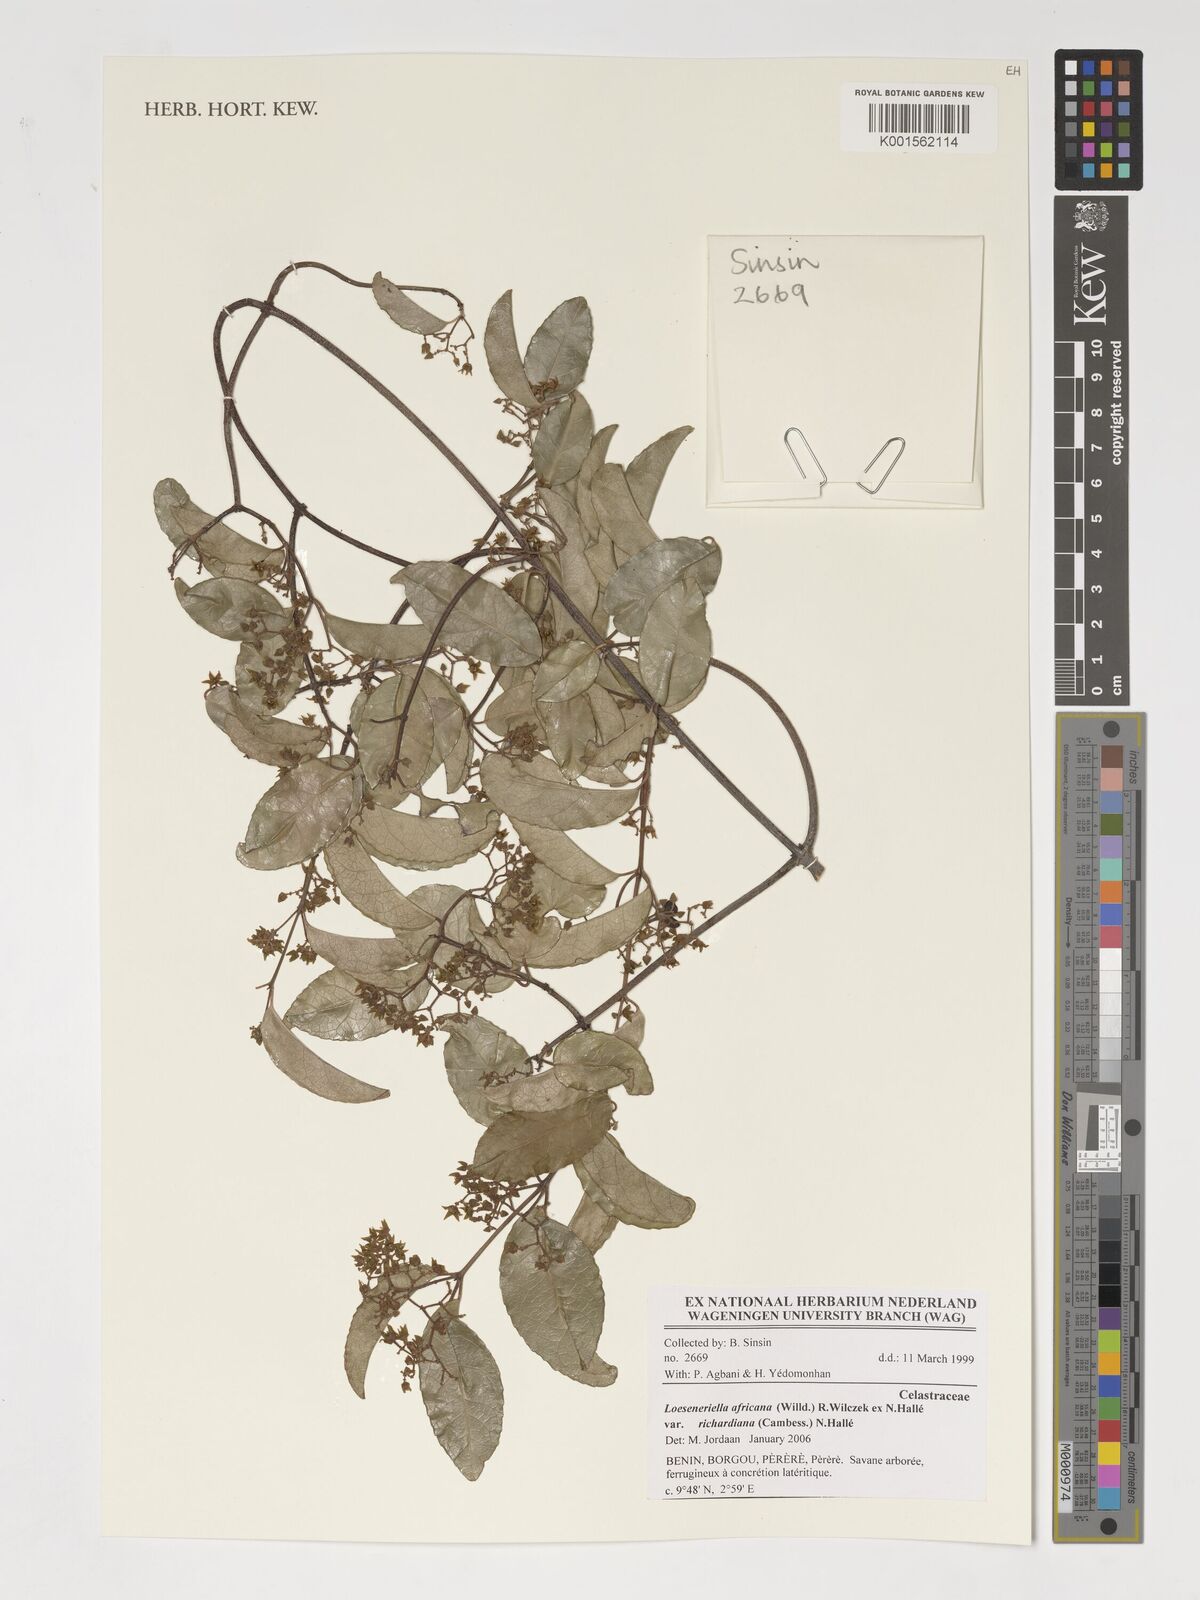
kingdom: Plantae
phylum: Tracheophyta
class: Magnoliopsida
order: Celastrales
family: Celastraceae
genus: Loeseneriella
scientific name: Loeseneriella africana
